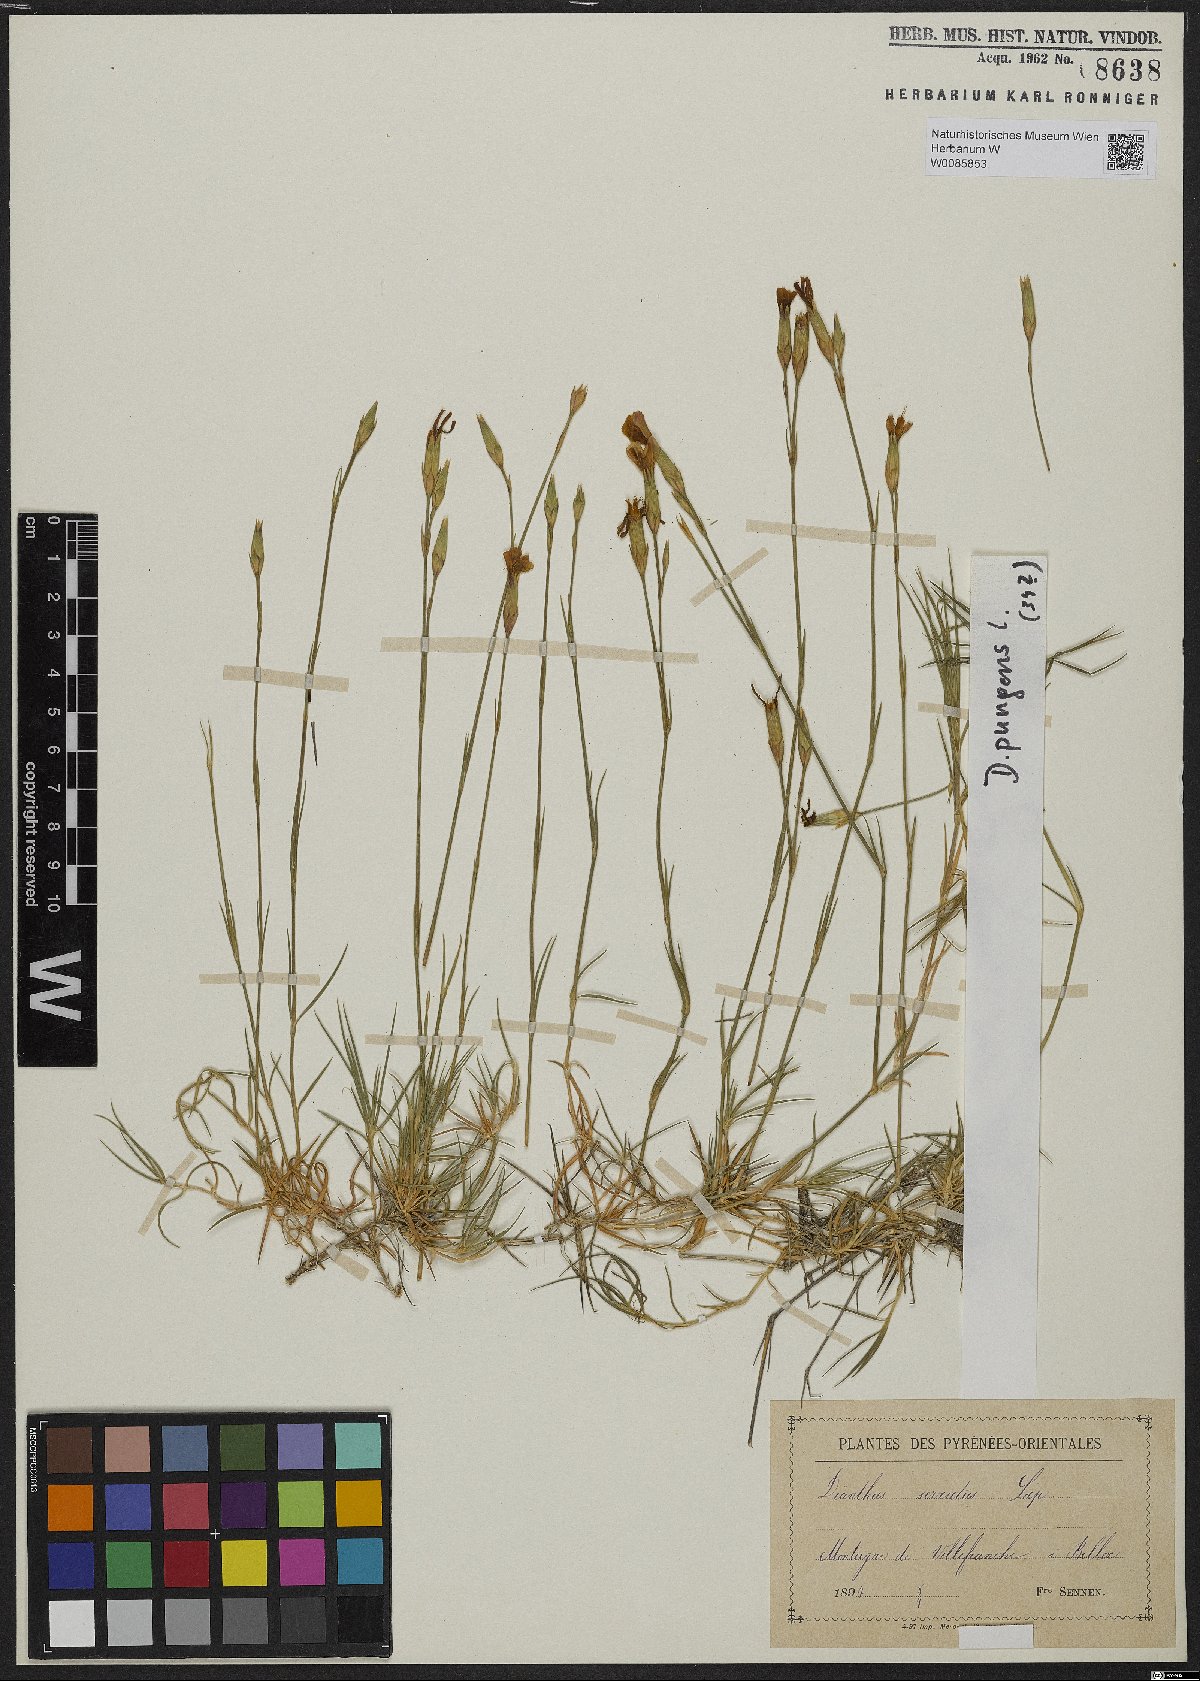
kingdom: Plantae
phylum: Tracheophyta
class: Magnoliopsida
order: Caryophyllales
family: Caryophyllaceae
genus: Dianthus
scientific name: Dianthus pungens
